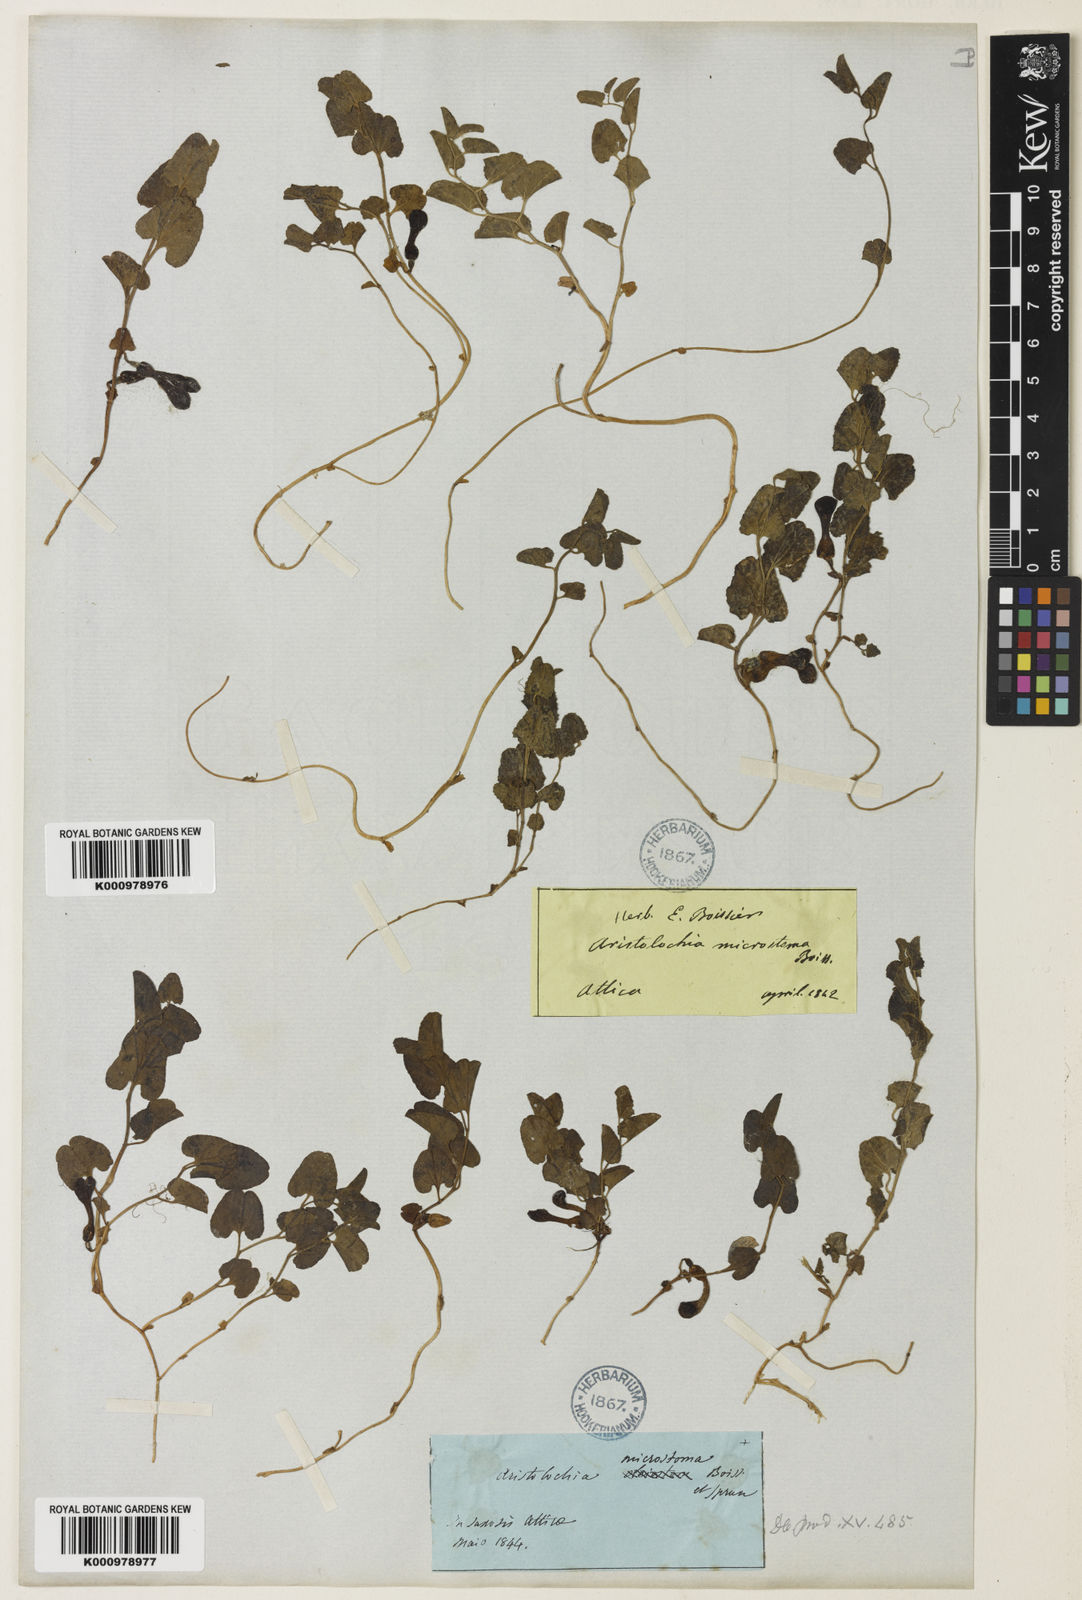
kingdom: Plantae
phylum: Tracheophyta
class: Magnoliopsida
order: Piperales
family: Aristolochiaceae
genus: Aristolochia
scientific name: Aristolochia microstoma
